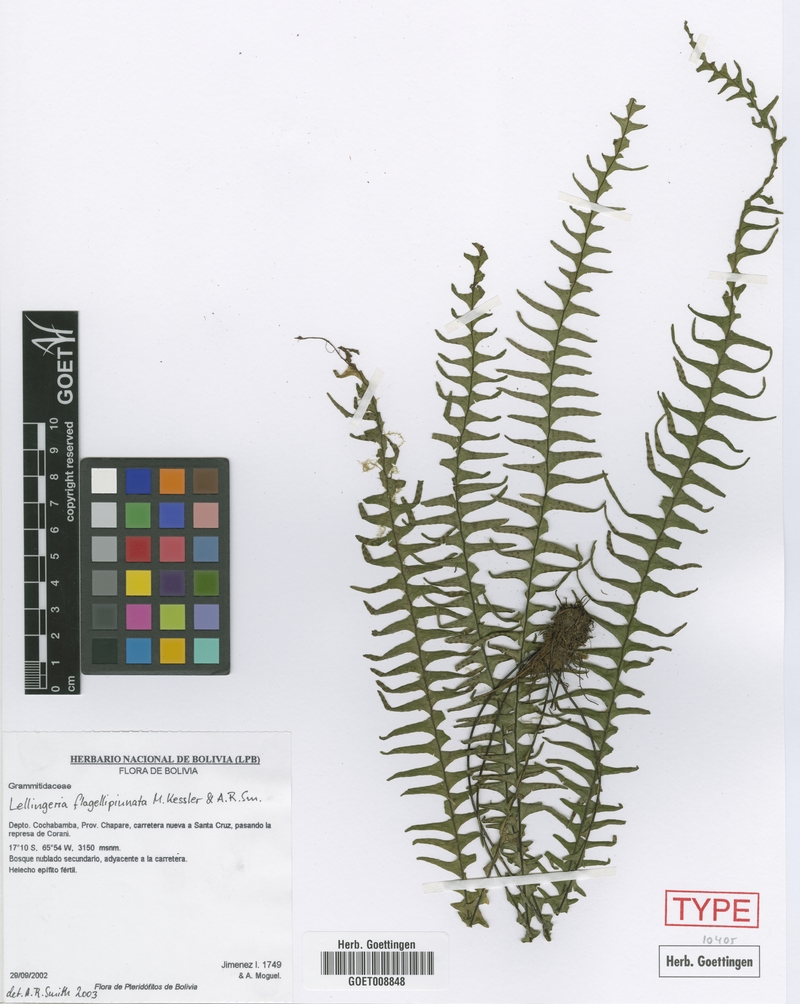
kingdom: Plantae
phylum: Tracheophyta
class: Polypodiopsida
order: Polypodiales
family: Polypodiaceae
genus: Lellingeria
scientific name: Lellingeria flagellipinnata
